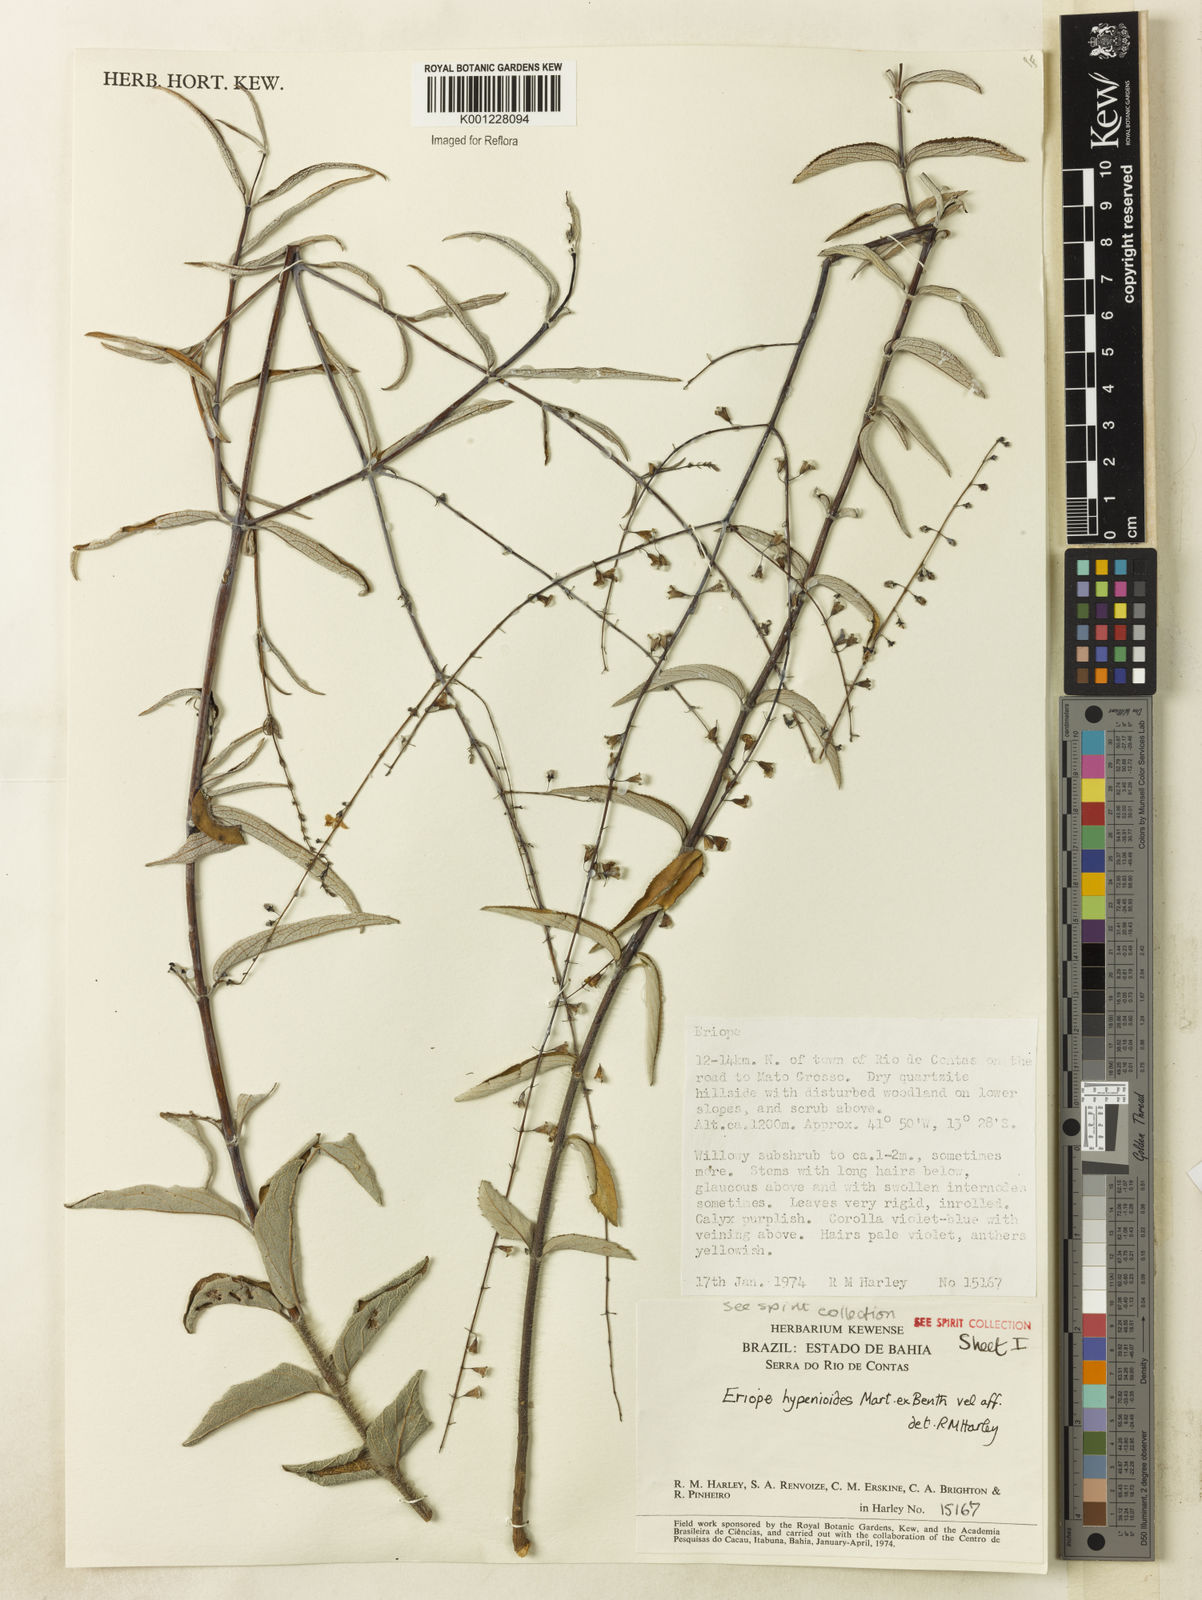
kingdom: Plantae
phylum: Tracheophyta
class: Magnoliopsida
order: Lamiales
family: Lamiaceae
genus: Eriope
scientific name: Eriope hypenioides
